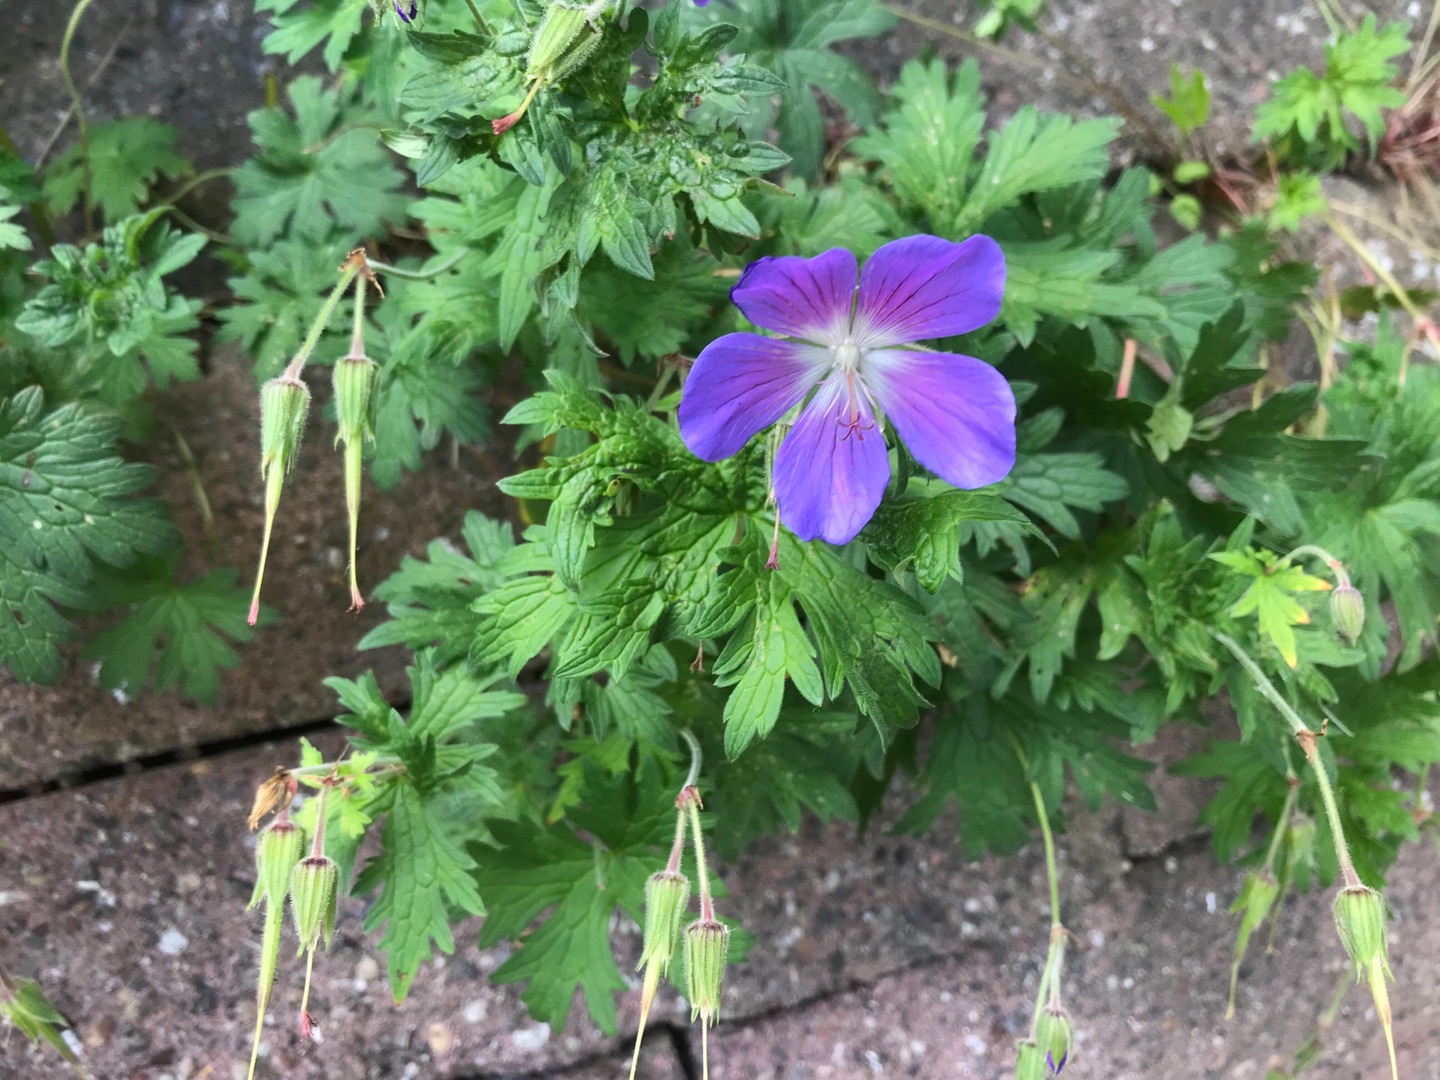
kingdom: Plantae
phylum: Tracheophyta
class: Magnoliopsida
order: Geraniales
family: Geraniaceae
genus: Geranium
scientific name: Geranium pratense
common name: Eng-storkenæb
